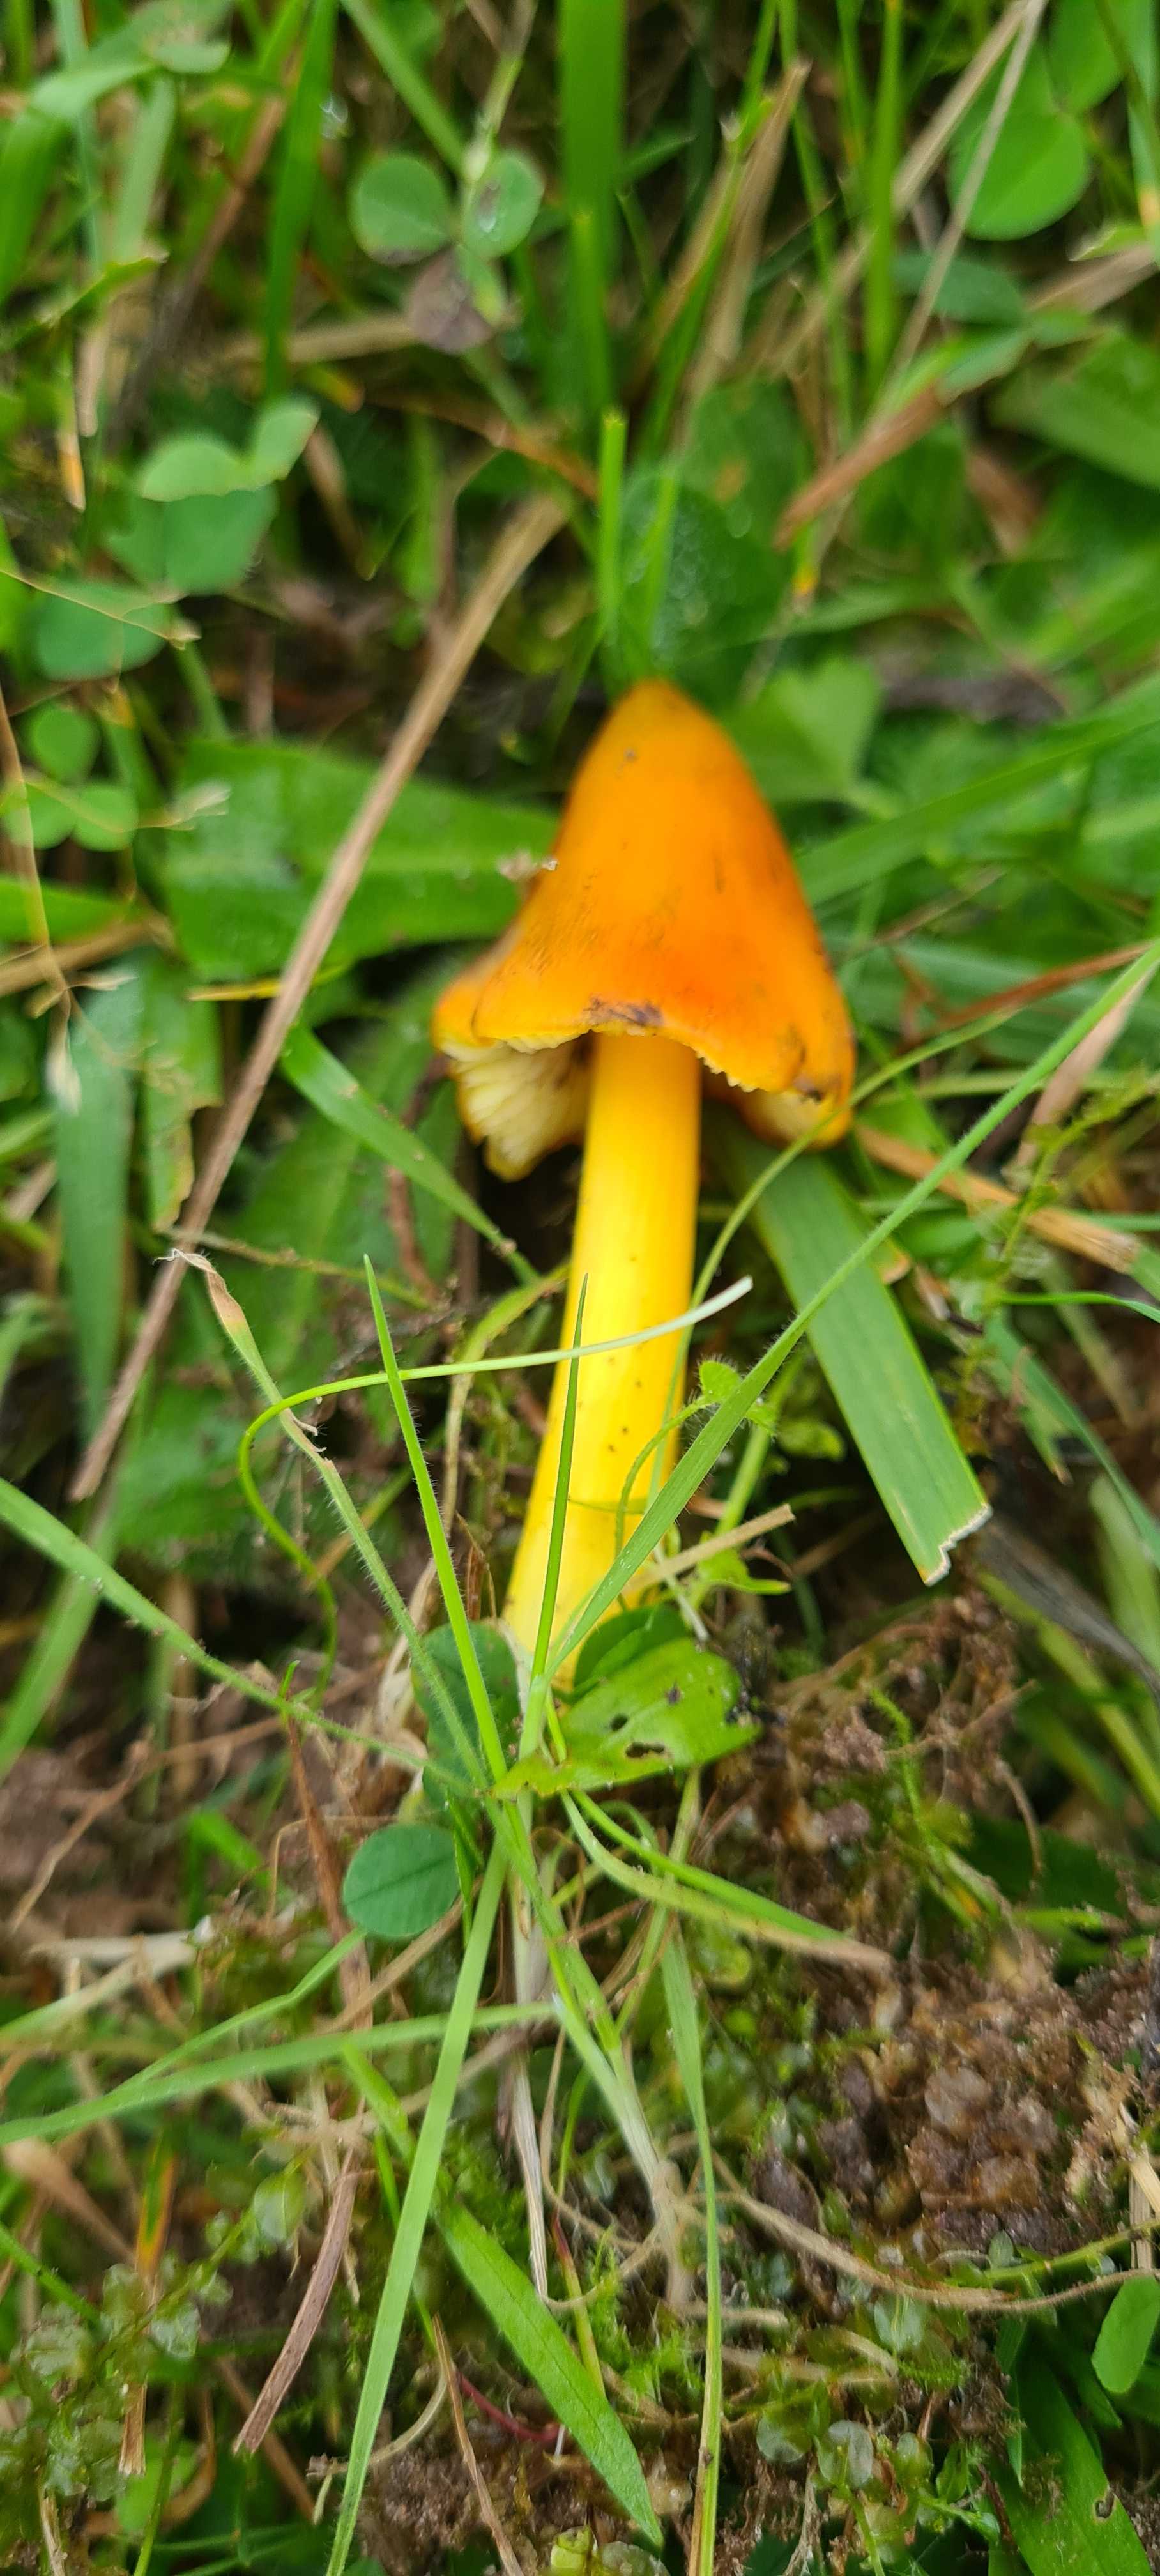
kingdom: Fungi
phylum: Basidiomycota
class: Agaricomycetes
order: Agaricales
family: Hygrophoraceae
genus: Hygrocybe
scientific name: Hygrocybe conica
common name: kegle-vokshat
